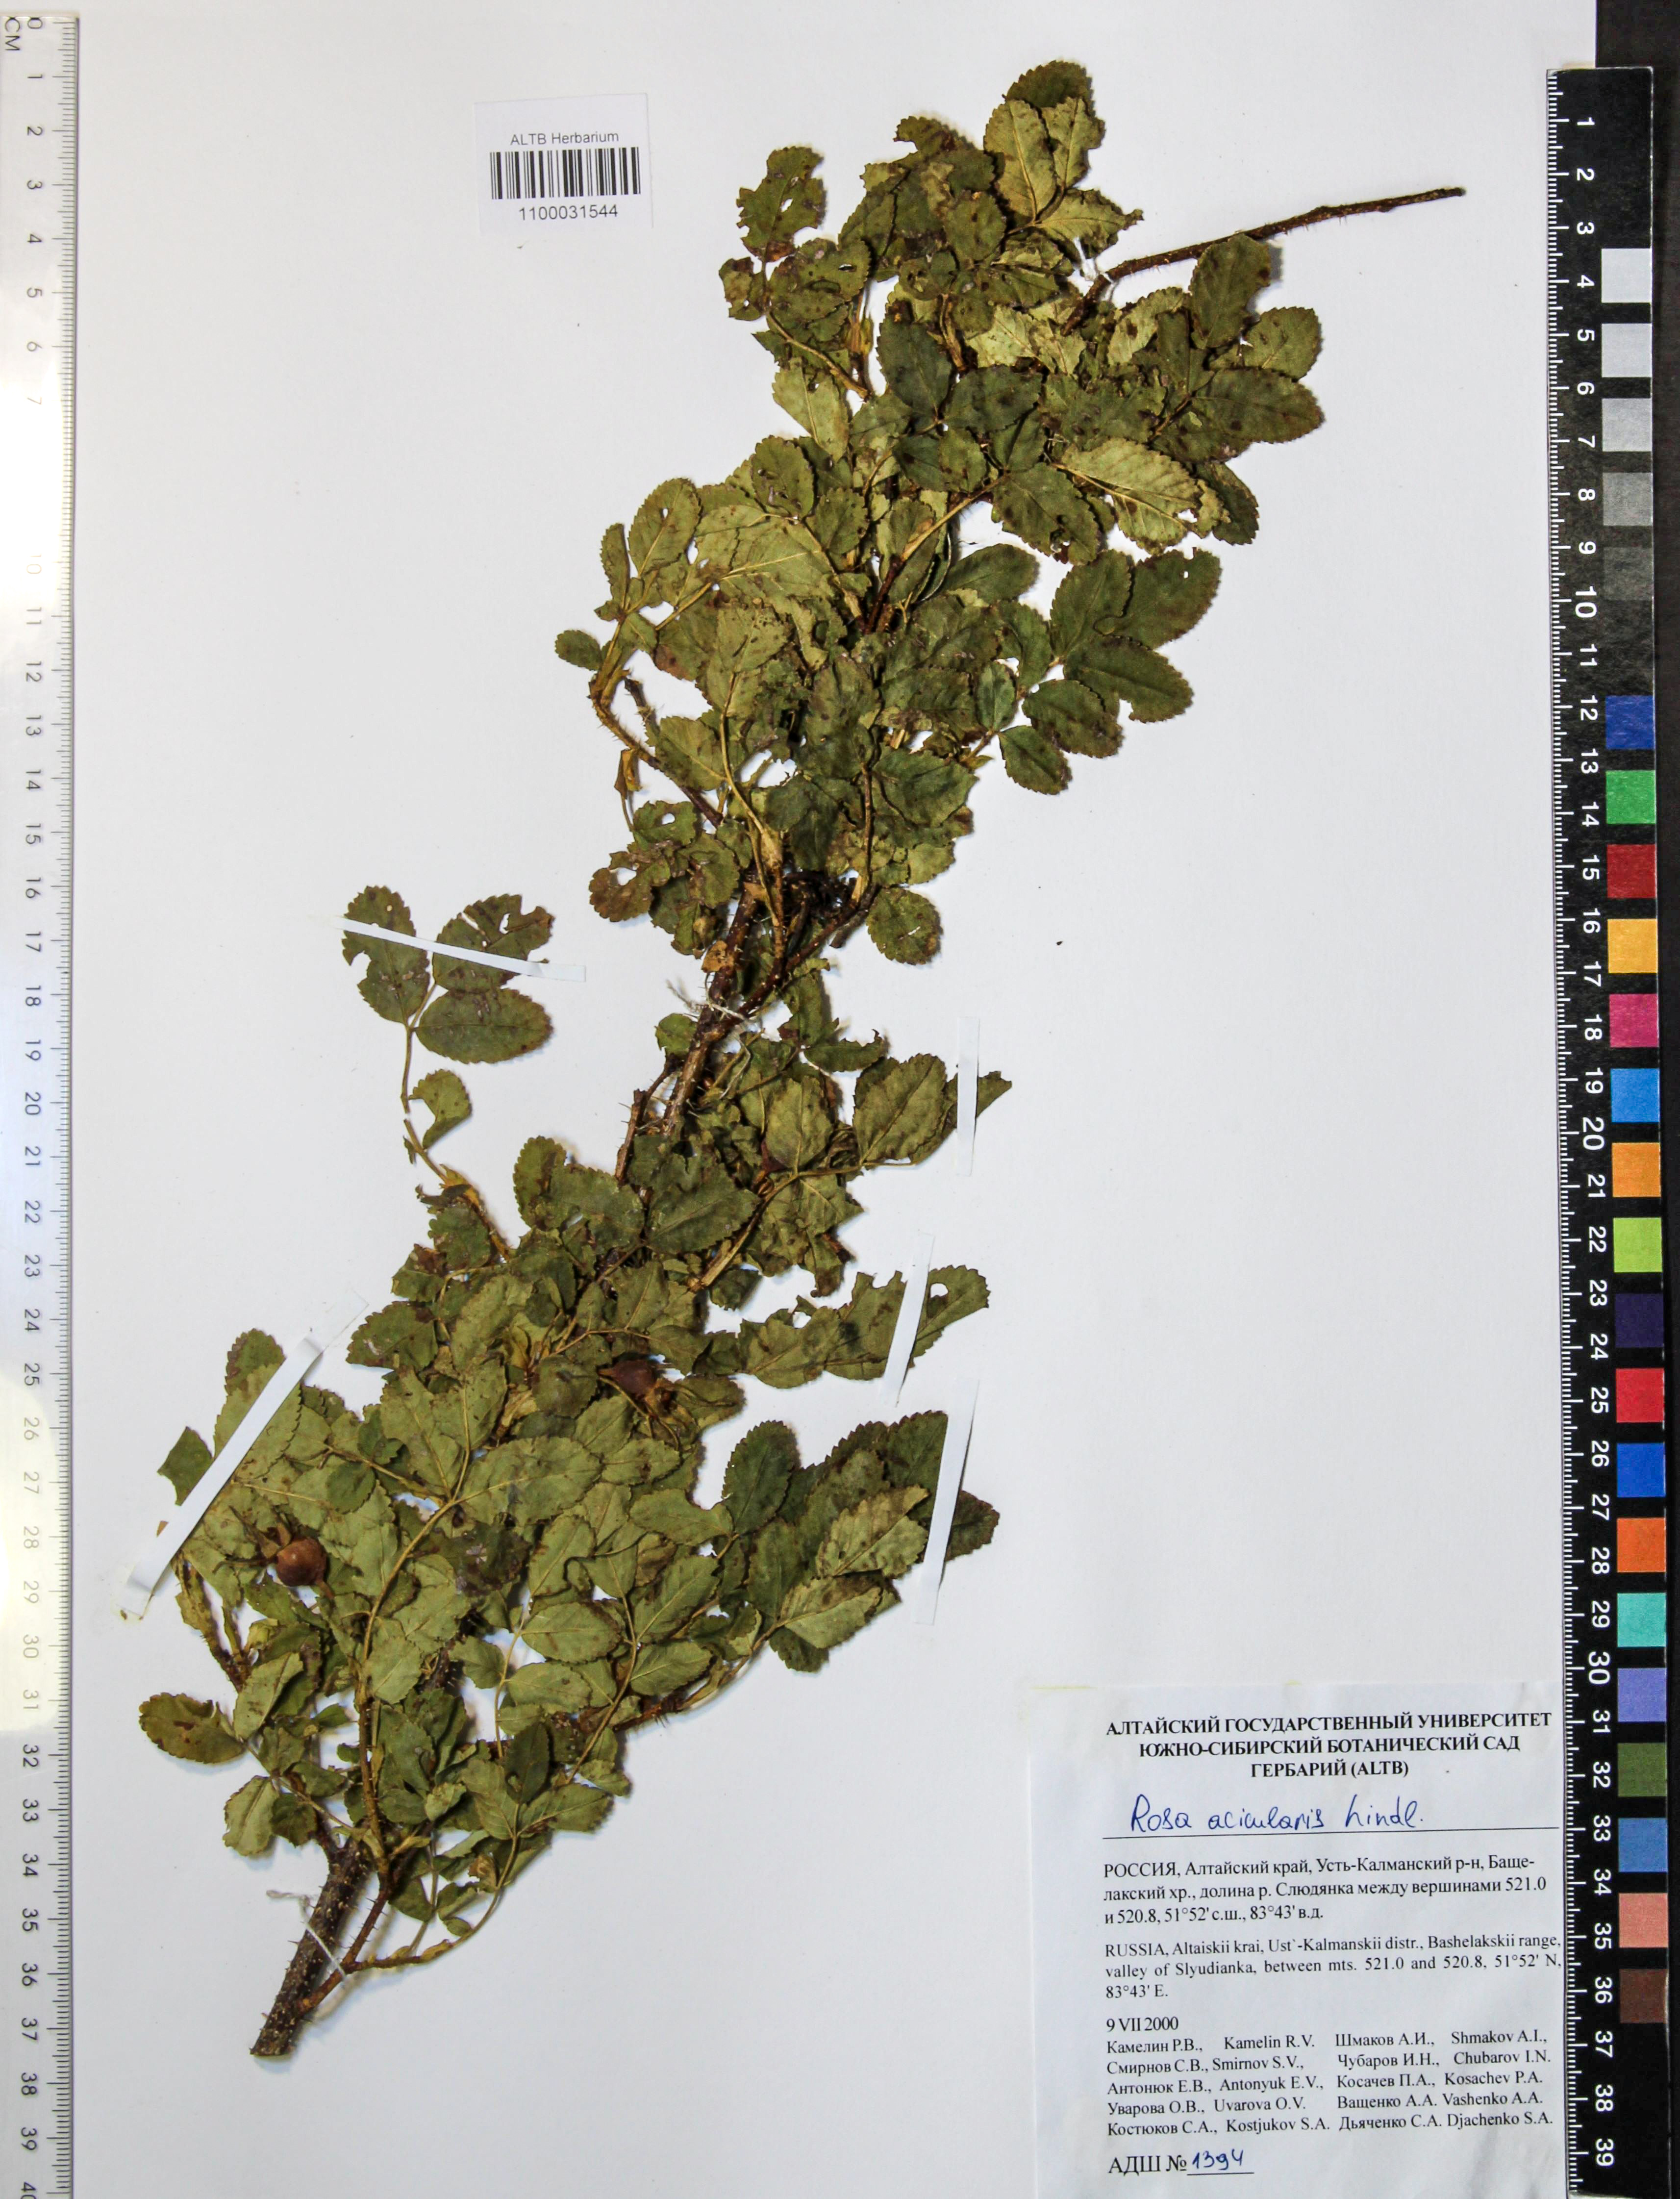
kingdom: Plantae
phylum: Tracheophyta
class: Magnoliopsida
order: Rosales
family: Rosaceae
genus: Rosa
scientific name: Rosa acicularis
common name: Prickly rose
